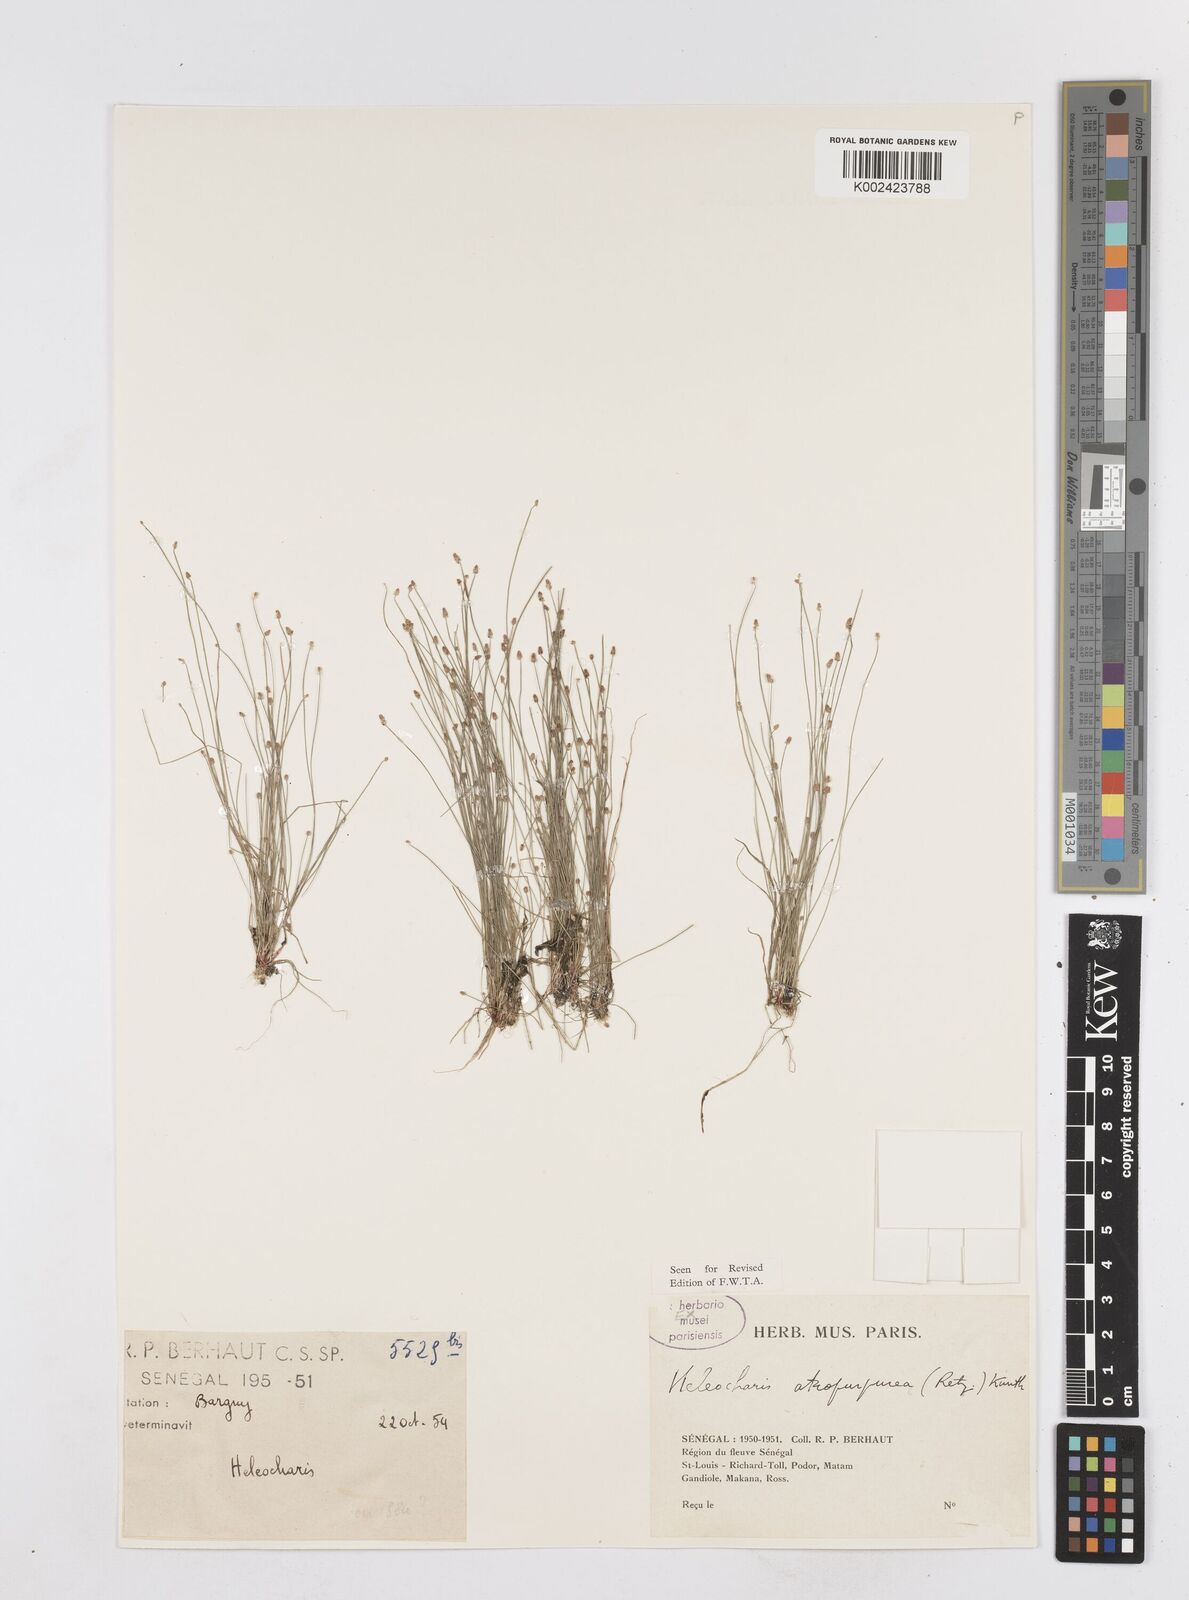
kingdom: Plantae
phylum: Tracheophyta
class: Liliopsida
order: Poales
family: Cyperaceae
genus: Eleocharis
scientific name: Eleocharis atropurpurea
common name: Purple spikerush
